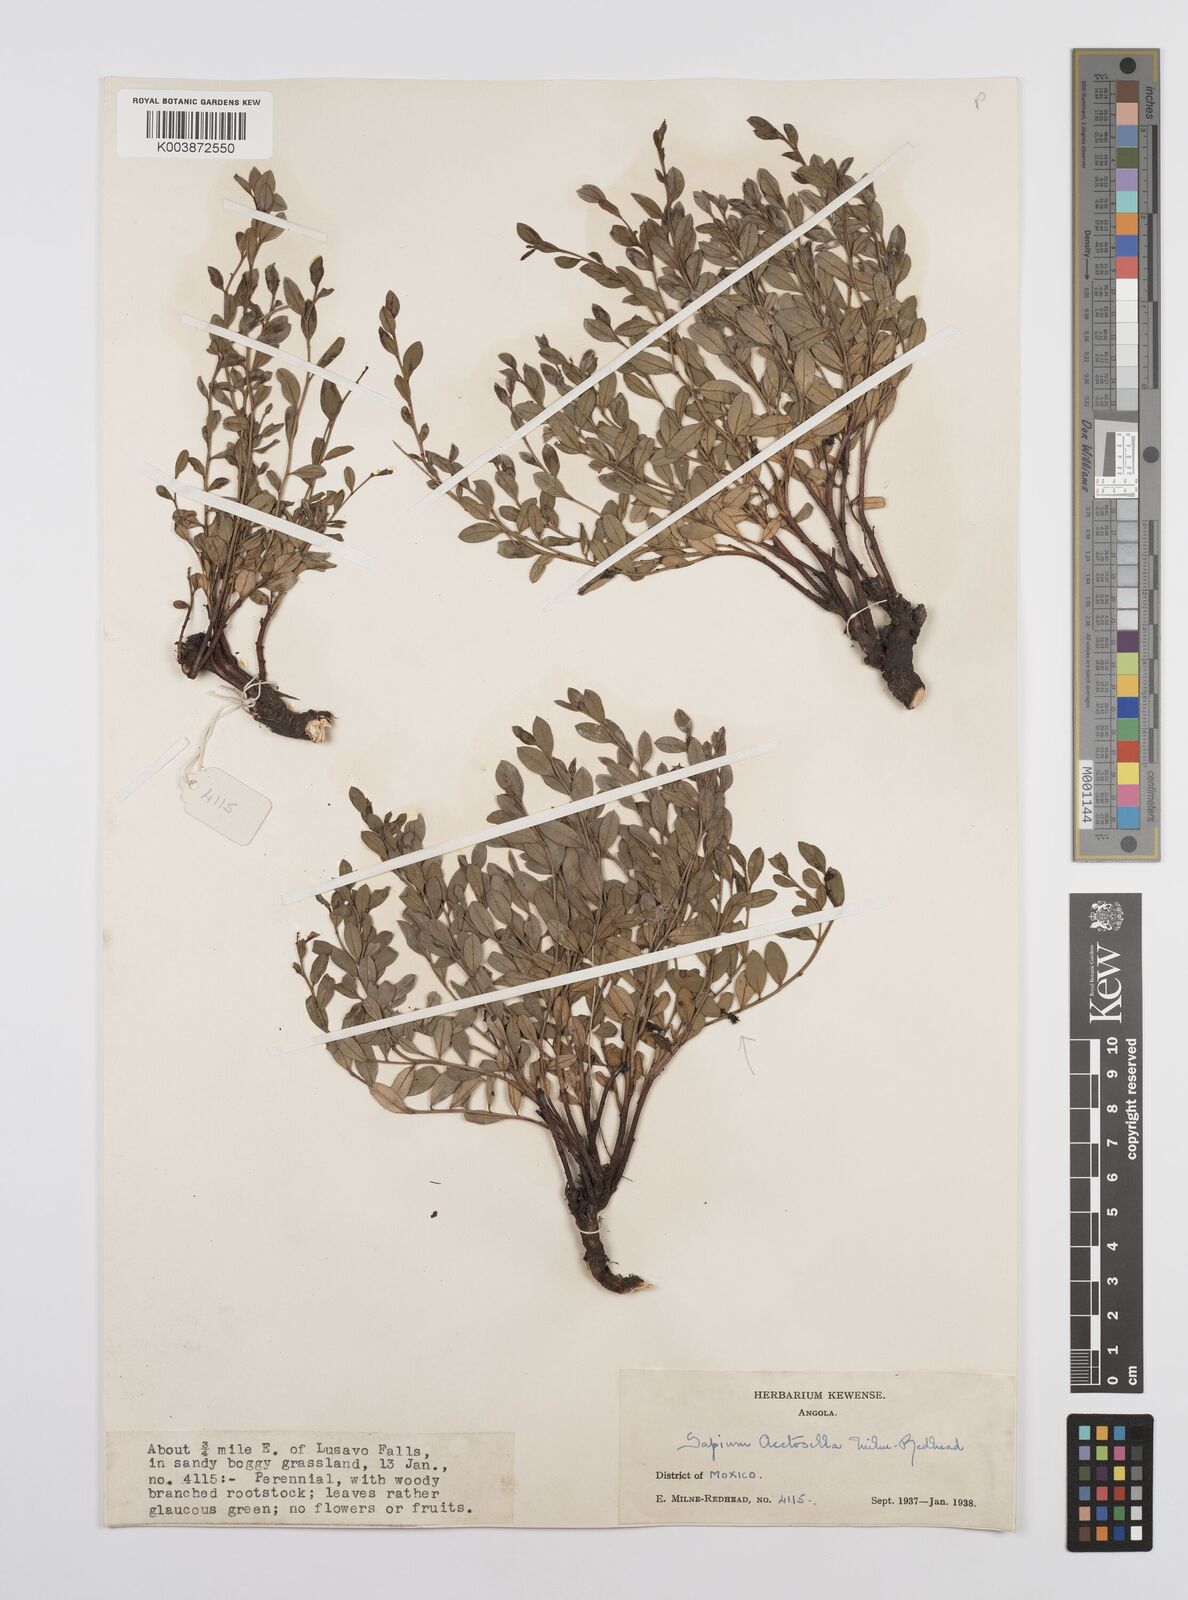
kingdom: Plantae
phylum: Tracheophyta
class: Magnoliopsida
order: Malpighiales
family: Euphorbiaceae
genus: Microstachys
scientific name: Microstachys acetosella
